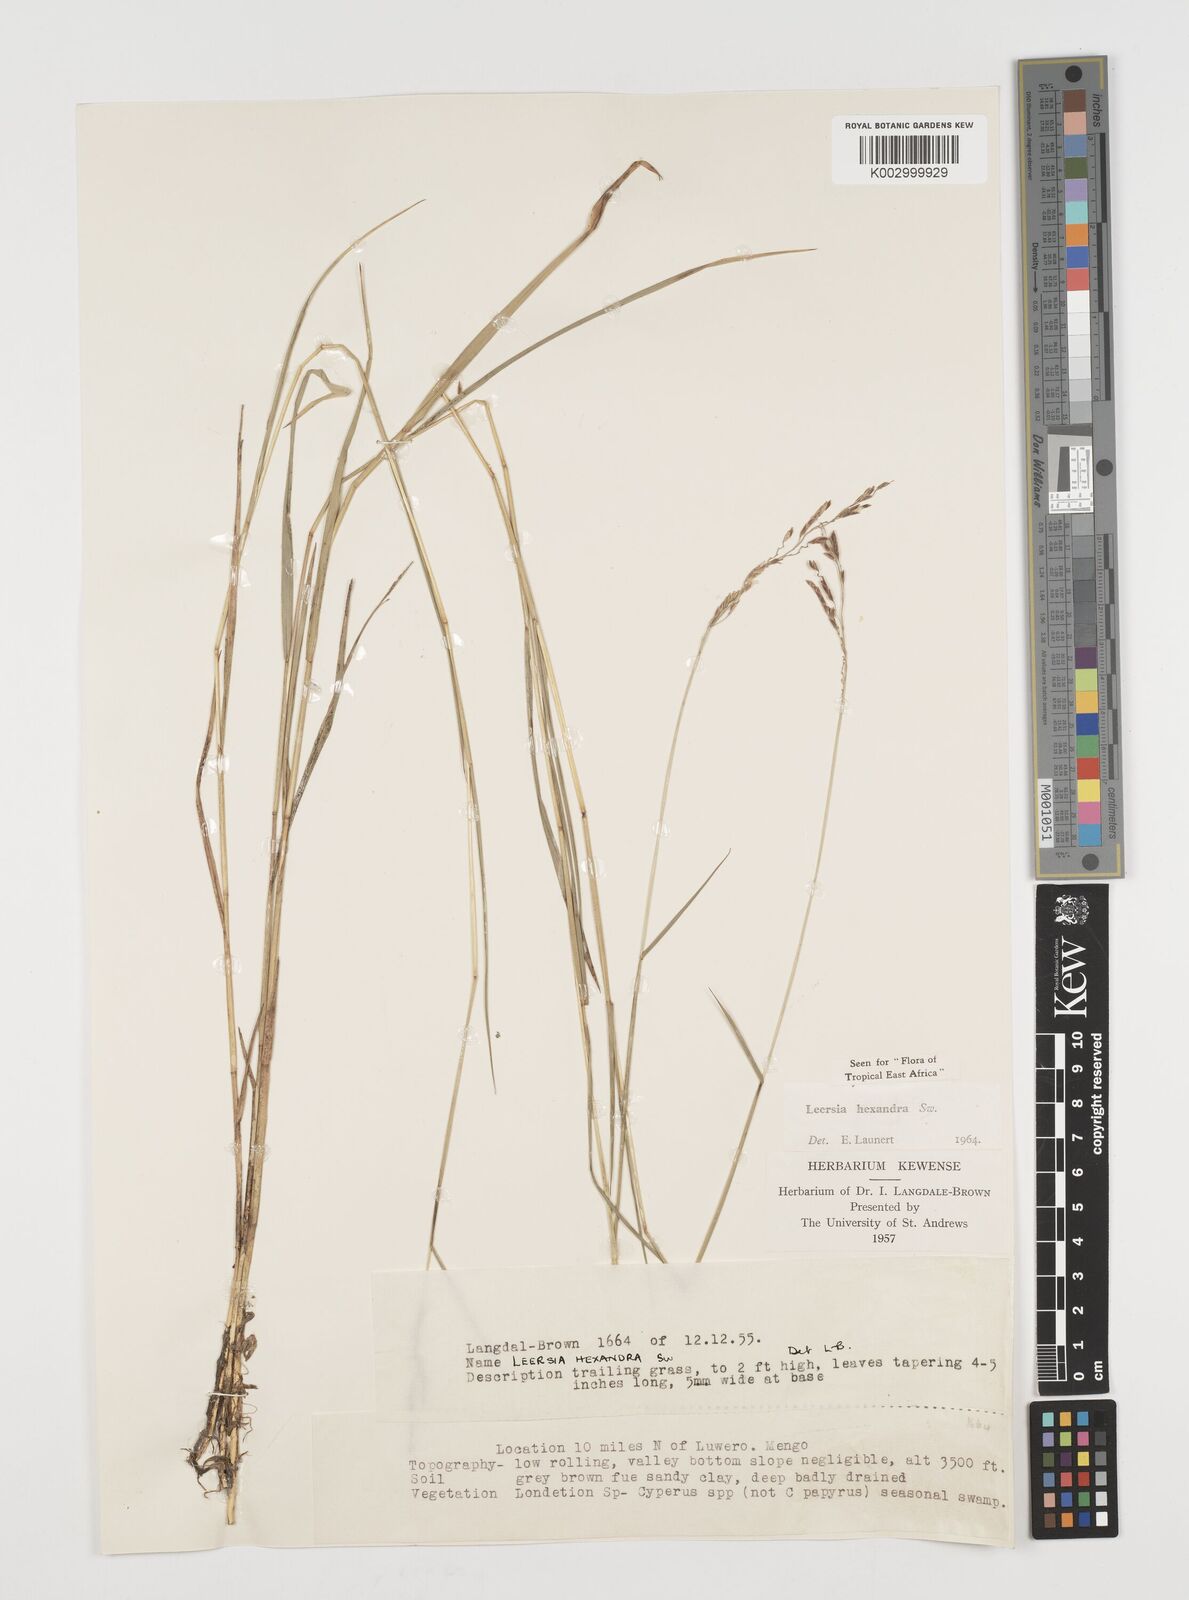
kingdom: Plantae
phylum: Tracheophyta
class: Liliopsida
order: Poales
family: Poaceae
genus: Leersia
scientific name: Leersia hexandra
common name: Southern cut grass
